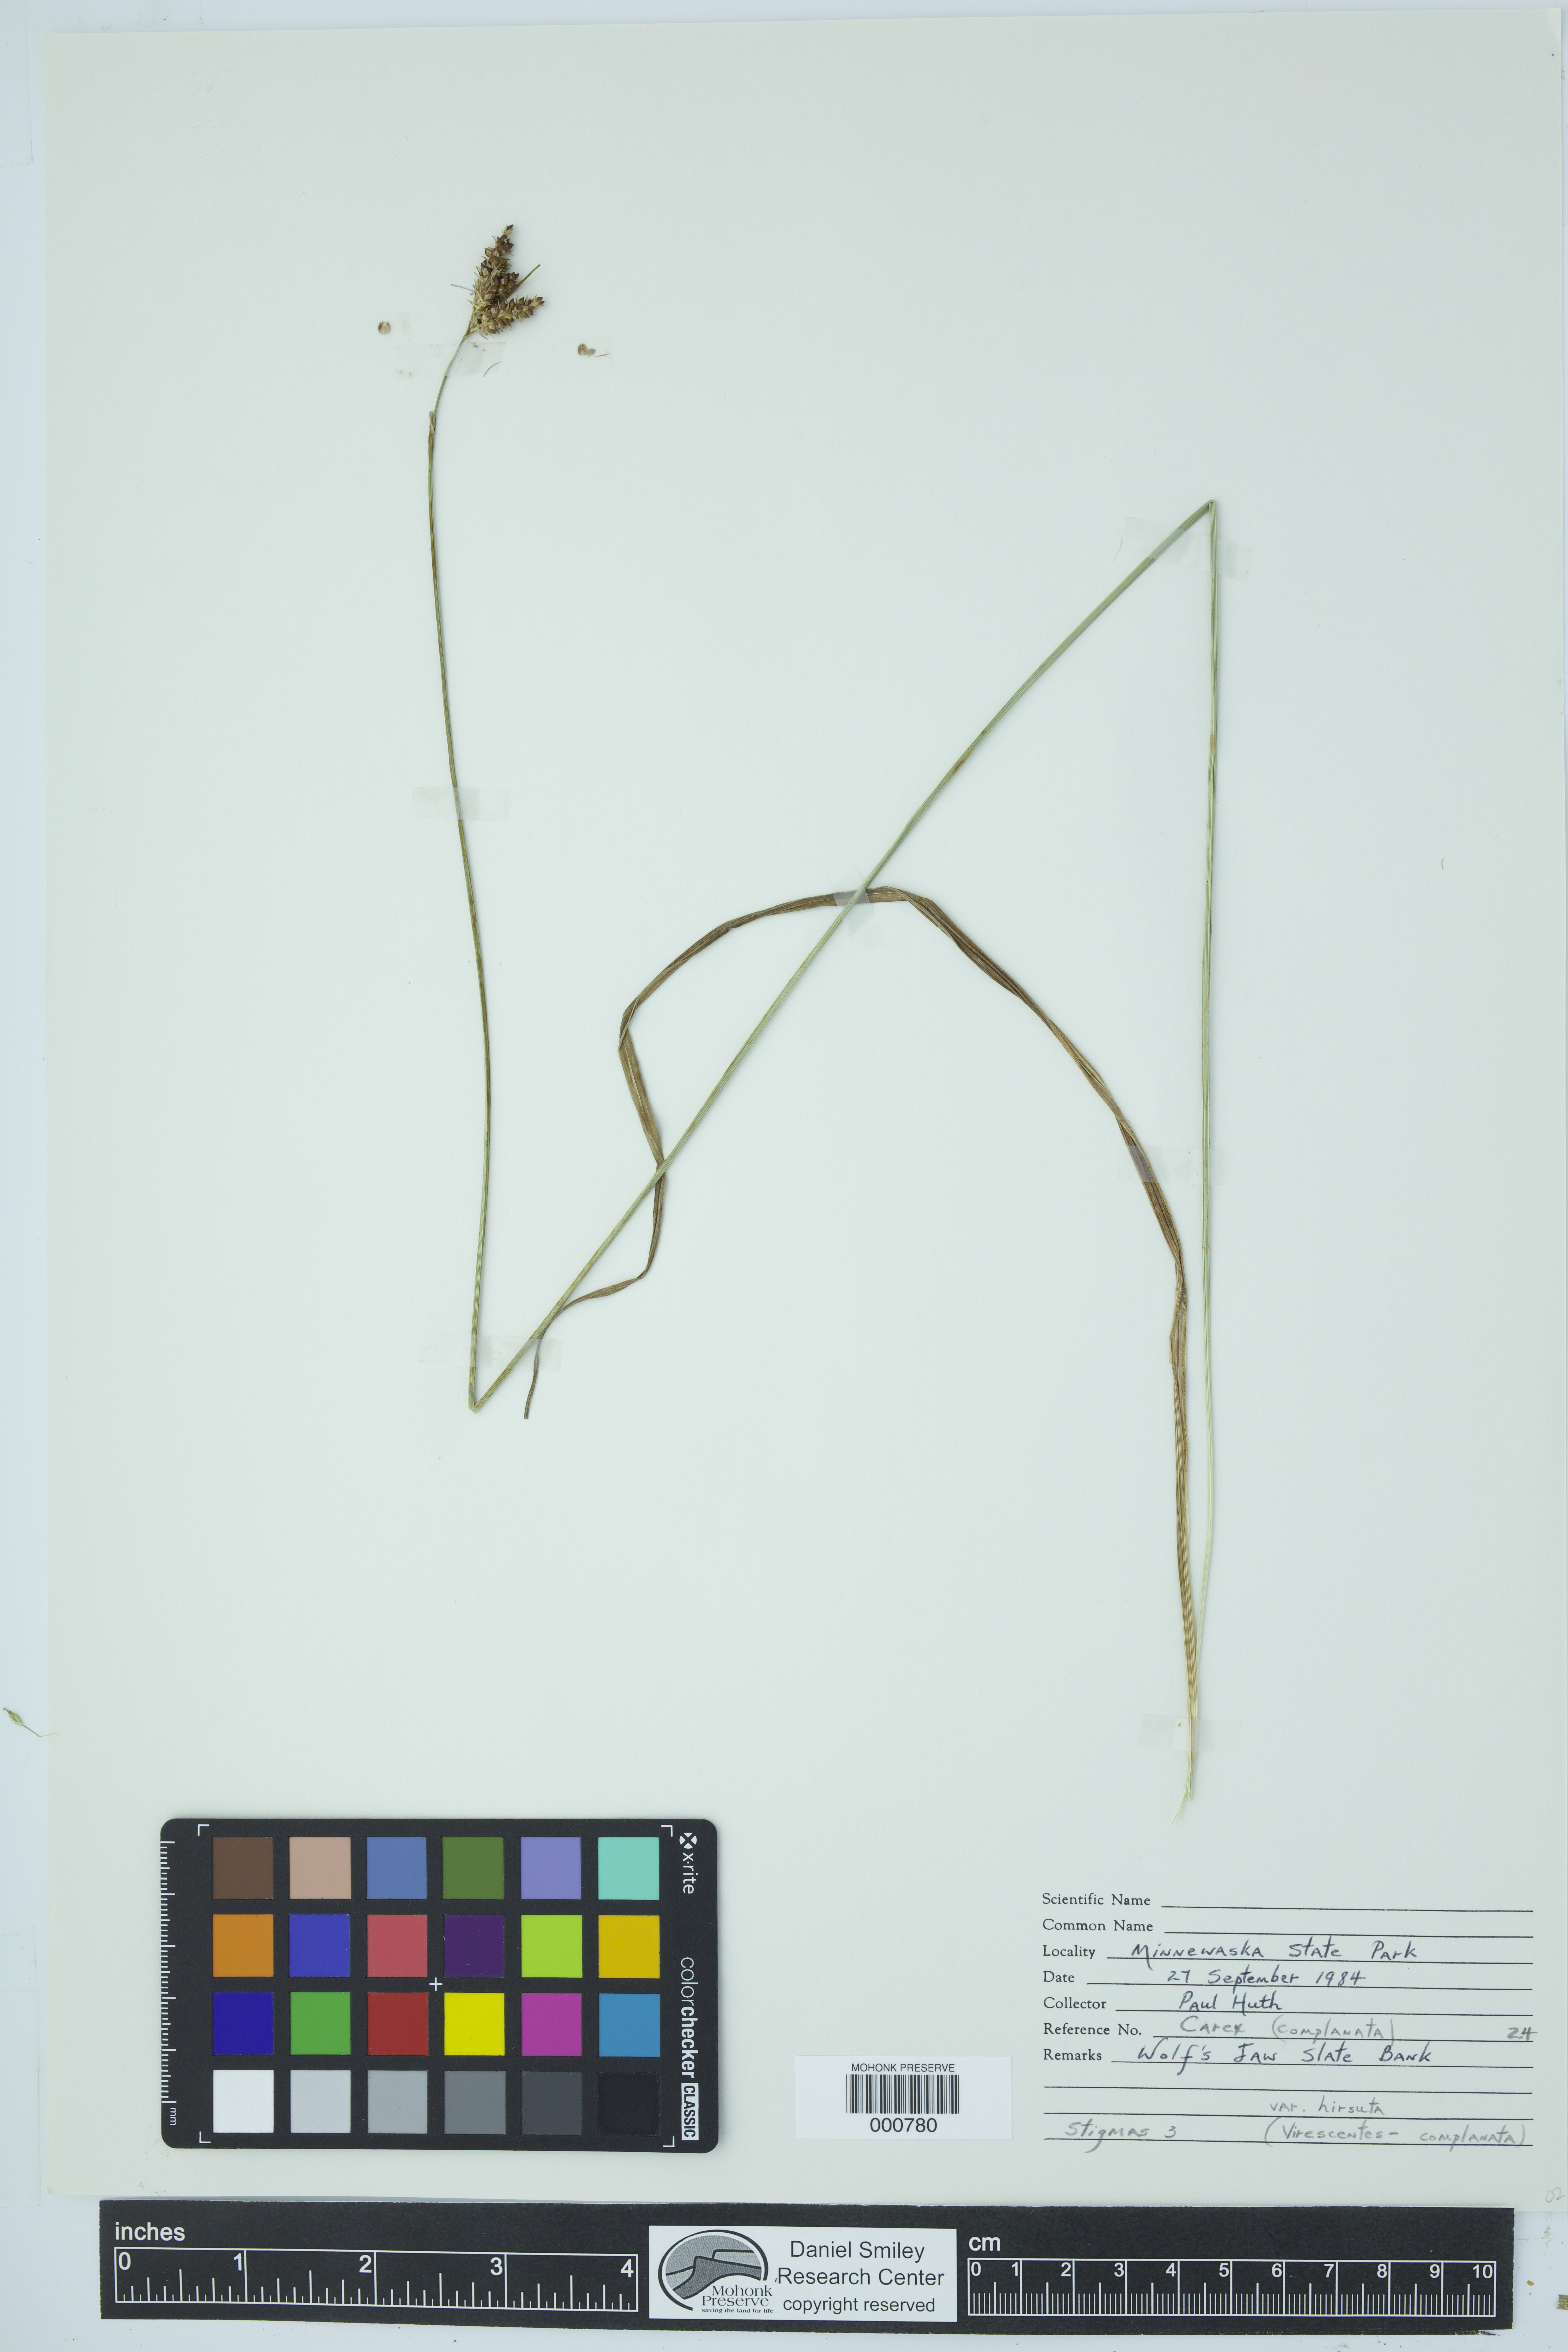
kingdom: Plantae
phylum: Tracheophyta
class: Liliopsida
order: Poales
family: Cyperaceae
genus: Carex
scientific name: Carex complanata
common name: Hirsute sedge
